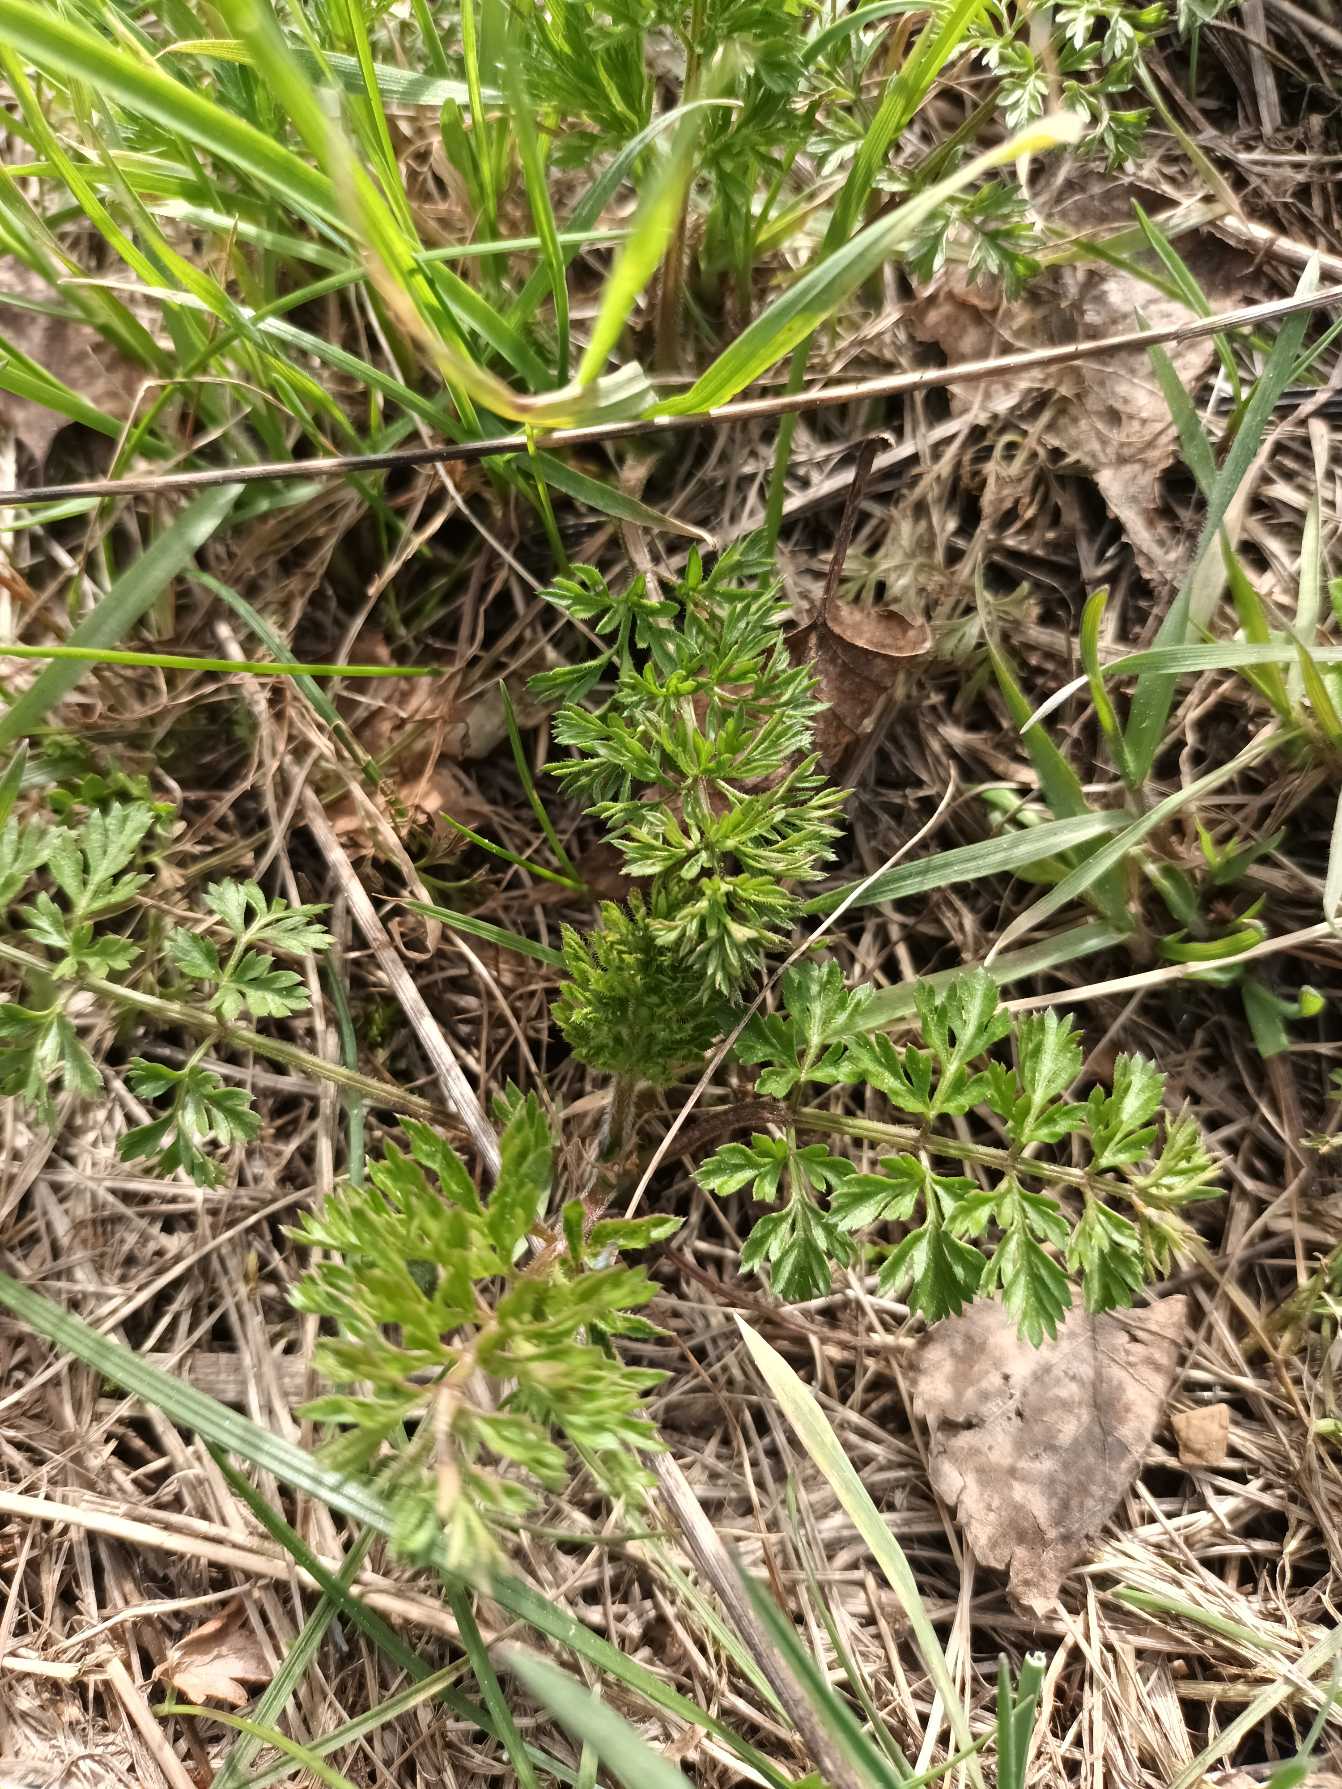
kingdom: Plantae
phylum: Tracheophyta
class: Magnoliopsida
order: Apiales
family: Apiaceae
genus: Daucus
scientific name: Daucus carota
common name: Gulerod
